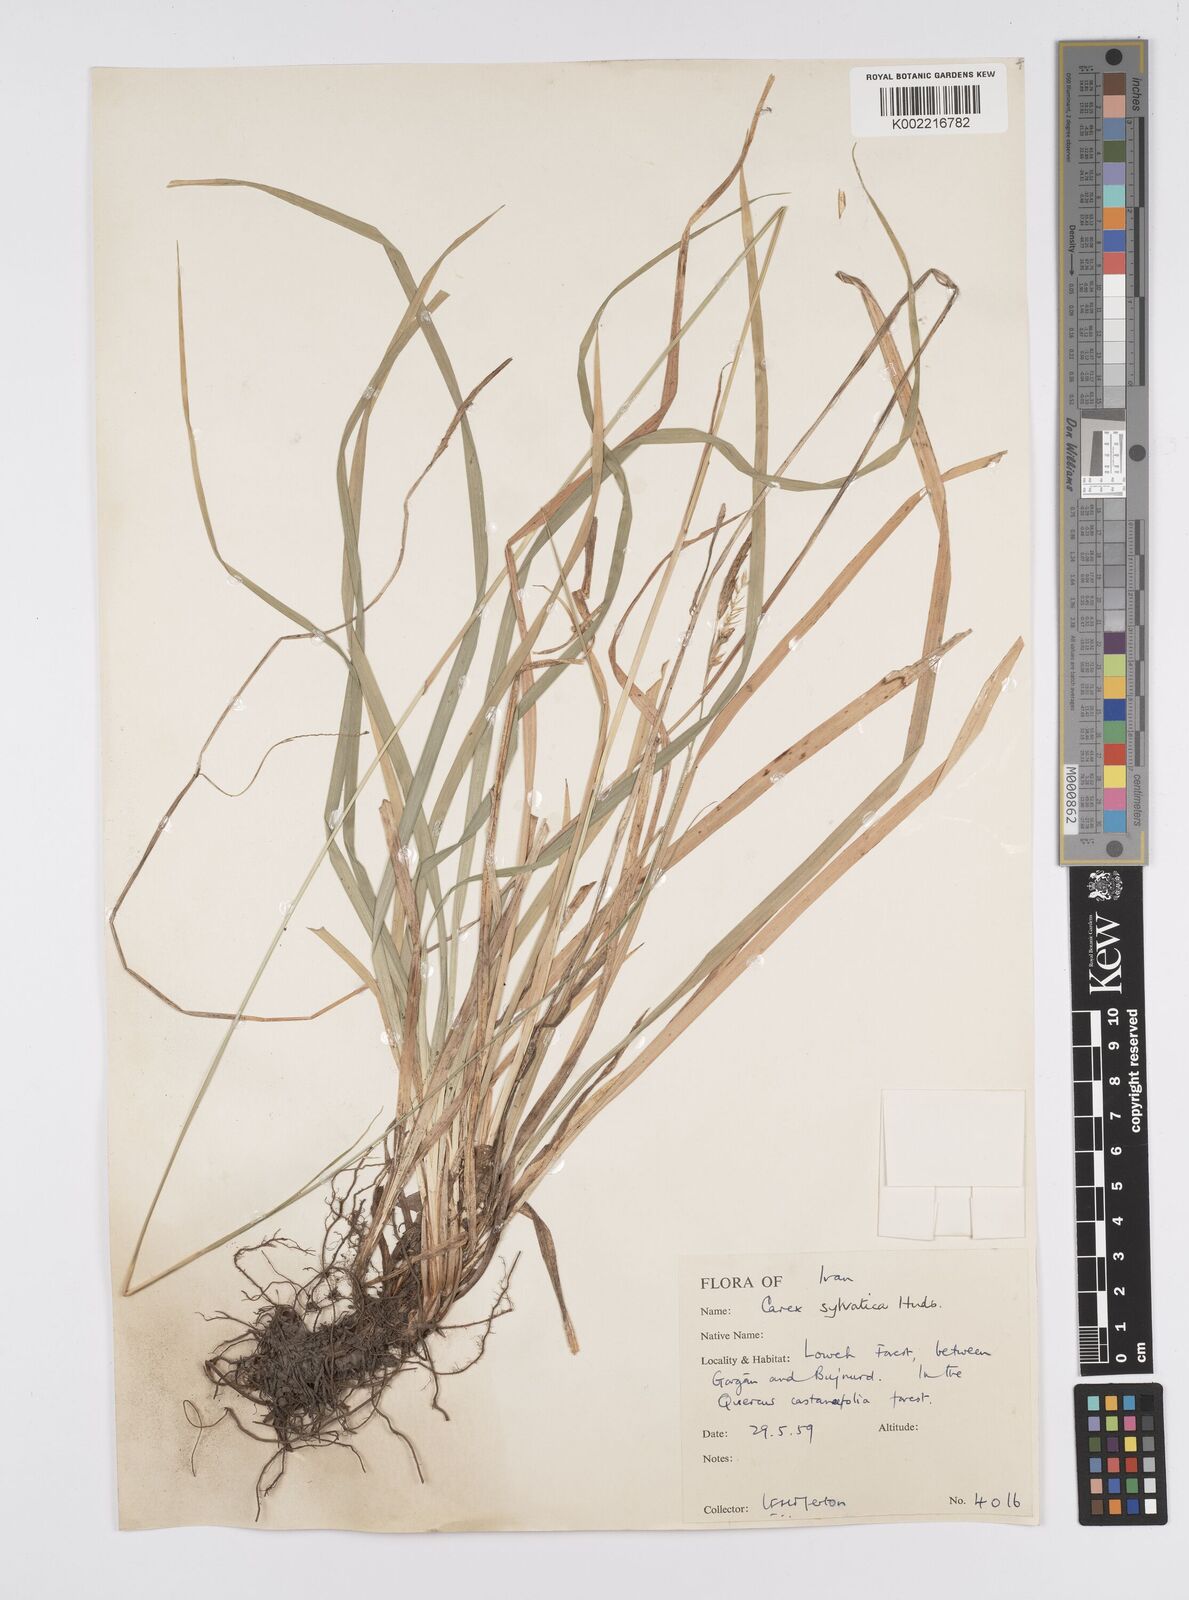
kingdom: Plantae
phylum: Tracheophyta
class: Liliopsida
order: Poales
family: Cyperaceae
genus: Carex
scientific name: Carex sylvatica
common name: Wood-sedge
